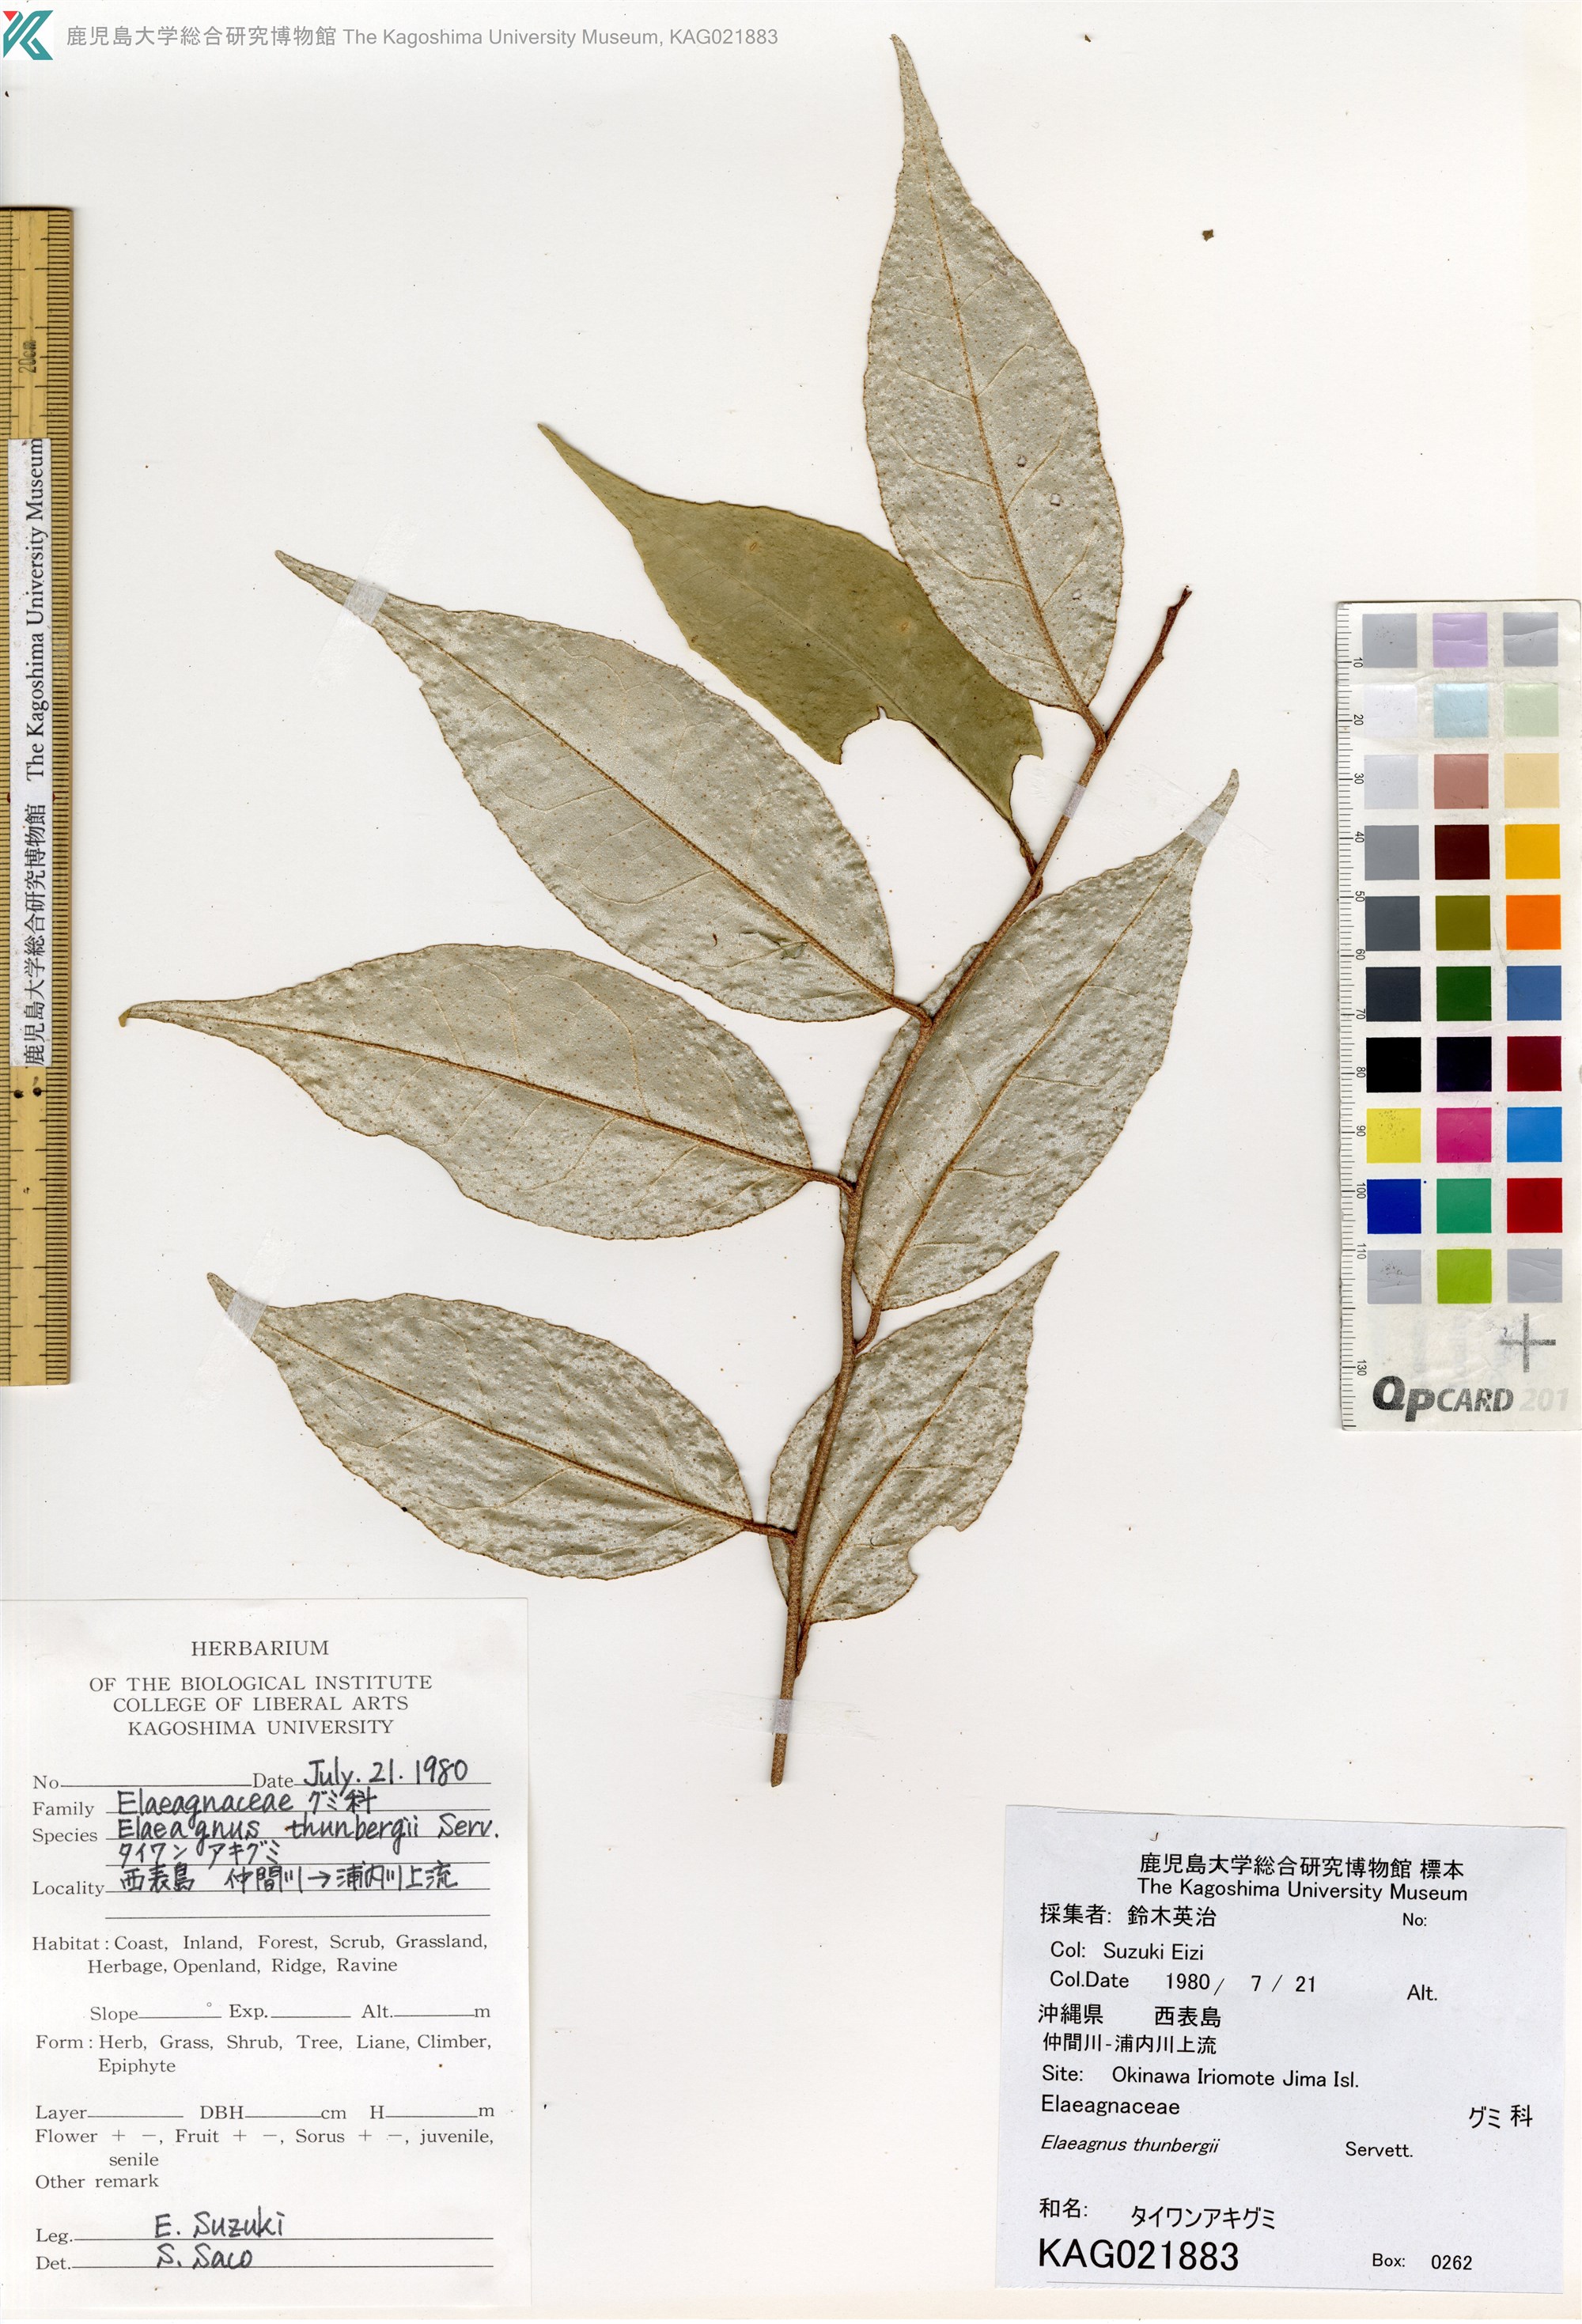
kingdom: Plantae
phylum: Tracheophyta
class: Magnoliopsida
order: Rosales
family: Elaeagnaceae
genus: Elaeagnus
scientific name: Elaeagnus thunbergii
